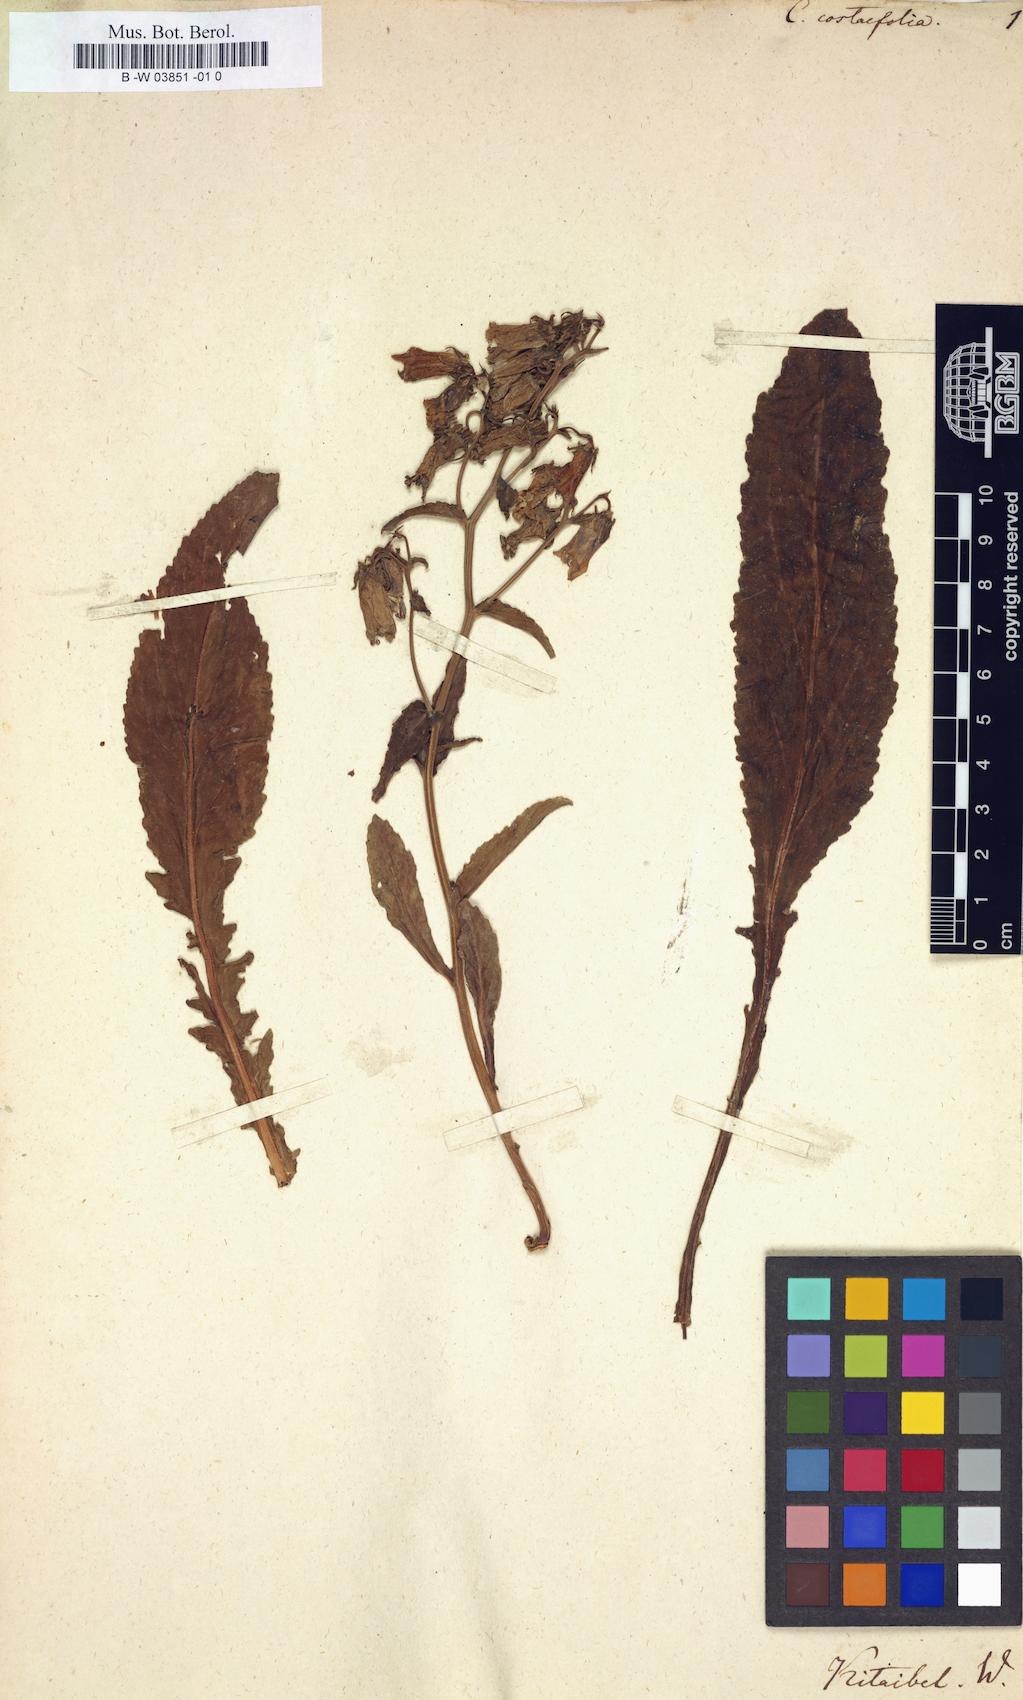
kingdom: Plantae
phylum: Tracheophyta
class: Magnoliopsida
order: Asterales
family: Campanulaceae
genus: Campanula
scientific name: Campanula
